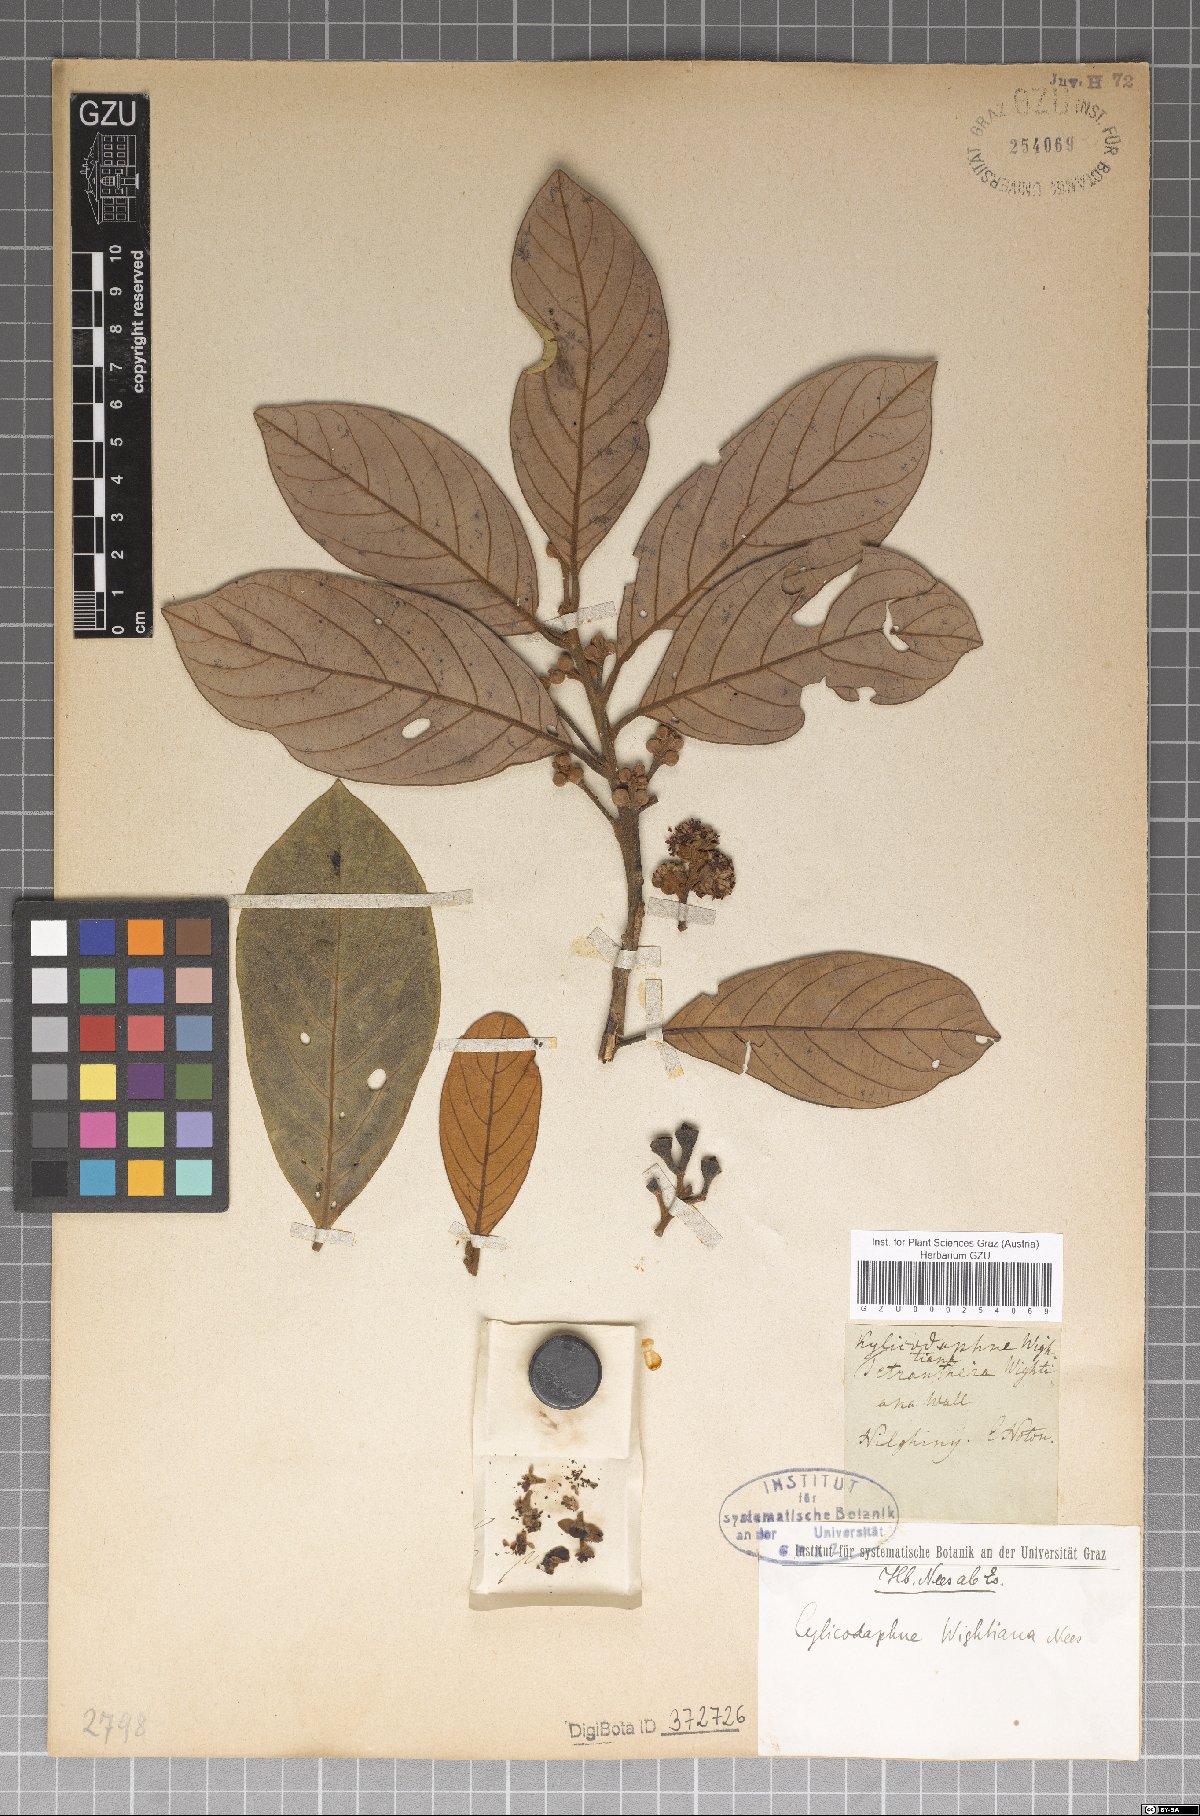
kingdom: Plantae
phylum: Tracheophyta
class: Magnoliopsida
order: Laurales
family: Lauraceae
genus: Litsea
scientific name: Litsea wightiana
